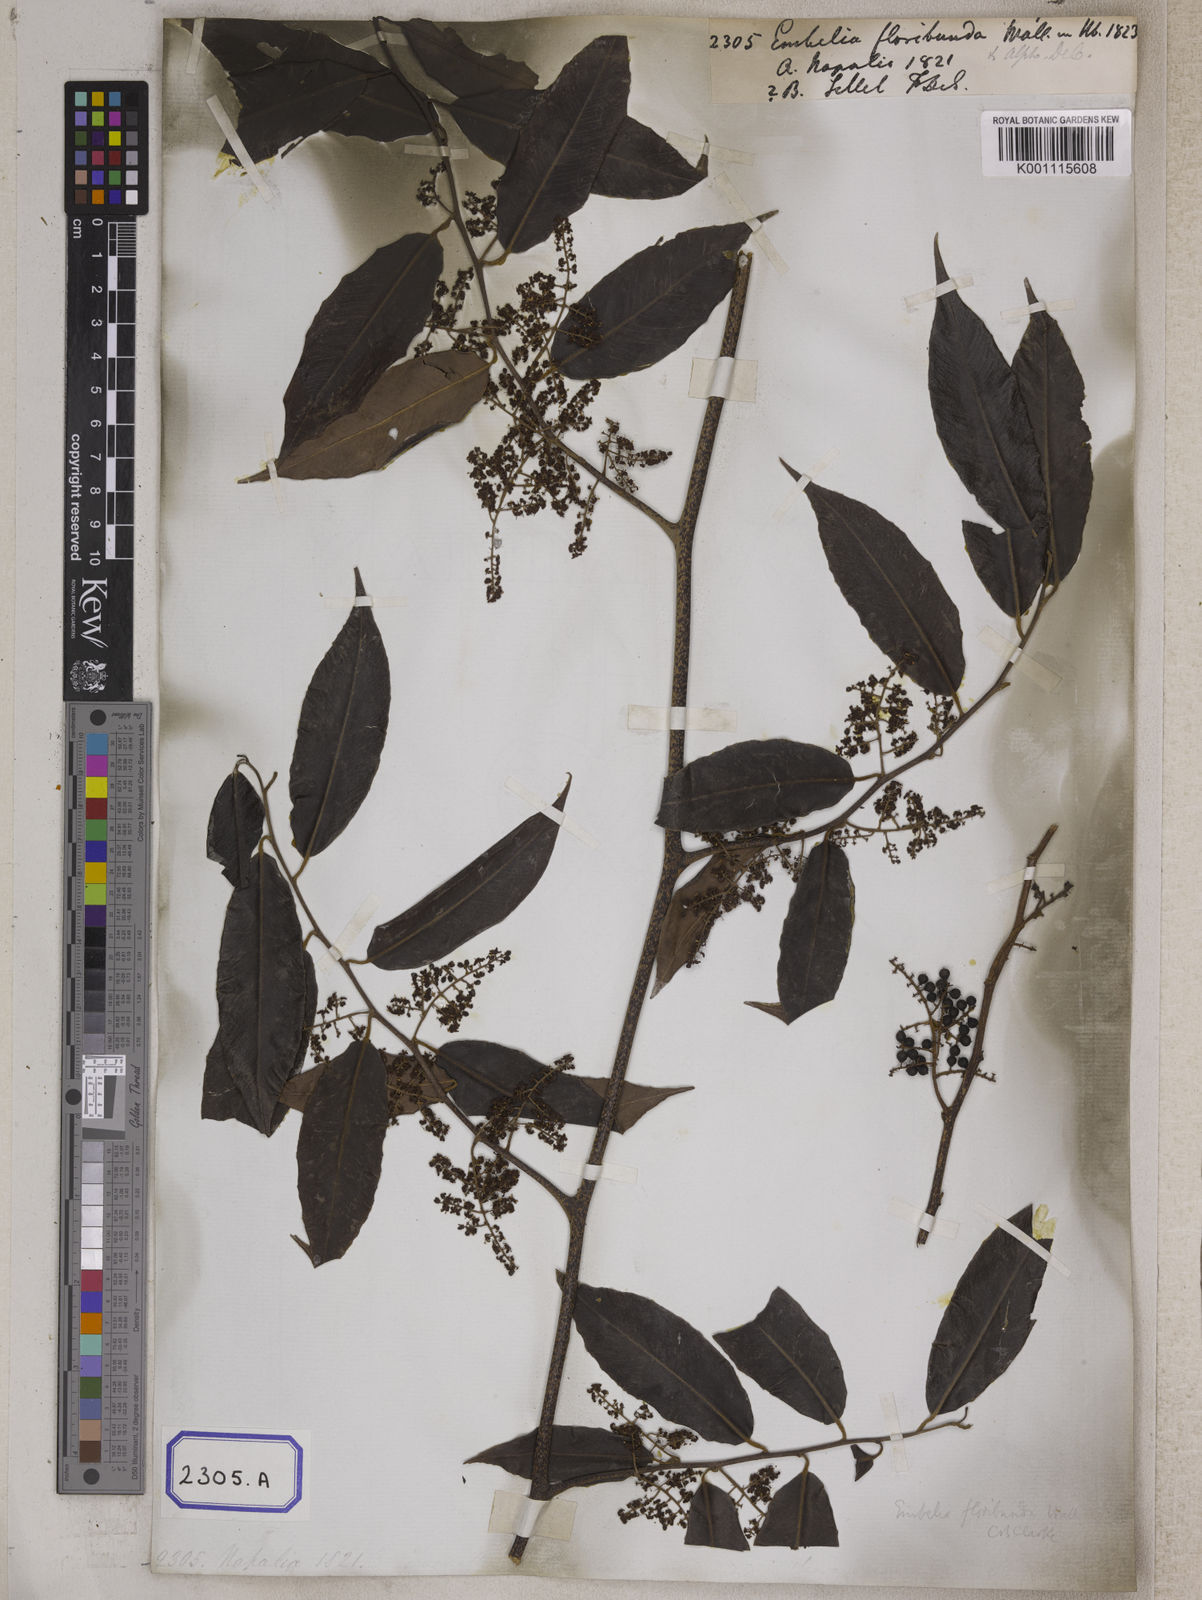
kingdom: Plantae
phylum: Tracheophyta
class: Magnoliopsida
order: Ericales
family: Primulaceae
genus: Embelia
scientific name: Embelia floribunda
